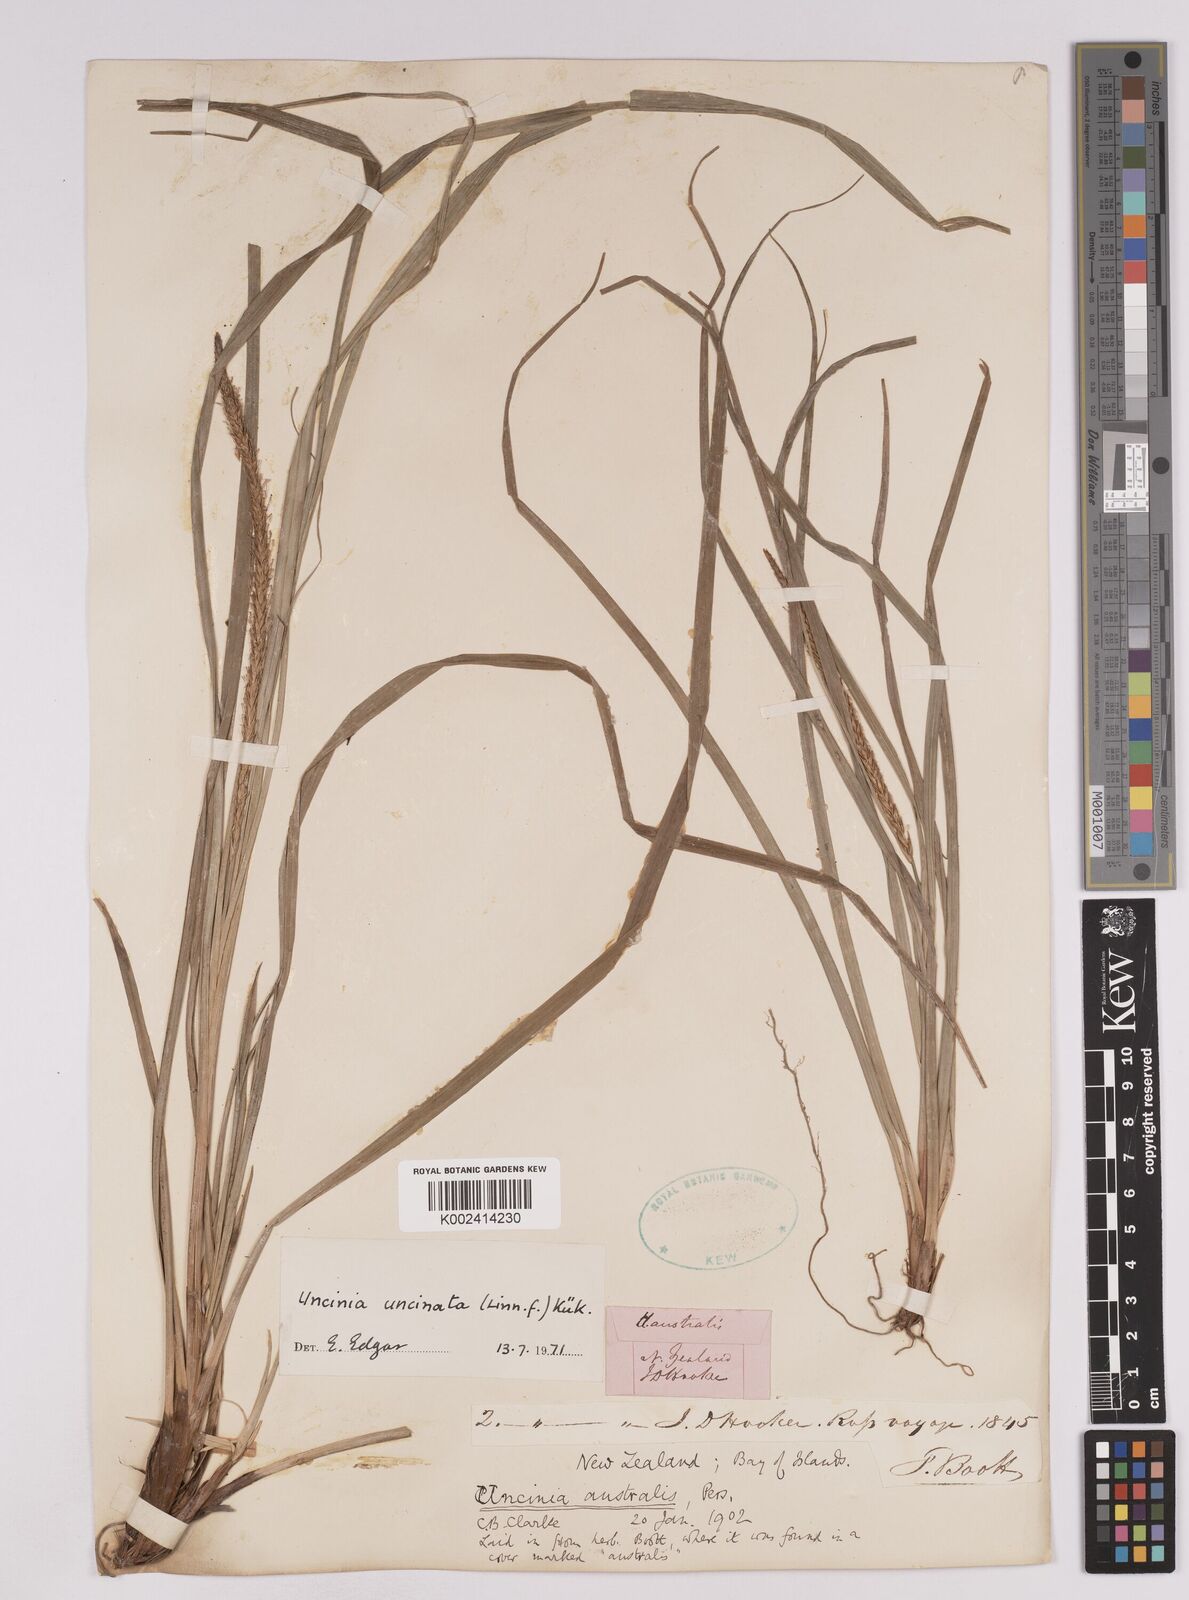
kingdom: Plantae
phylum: Tracheophyta
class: Liliopsida
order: Poales
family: Cyperaceae
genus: Carex
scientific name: Carex uncinata
